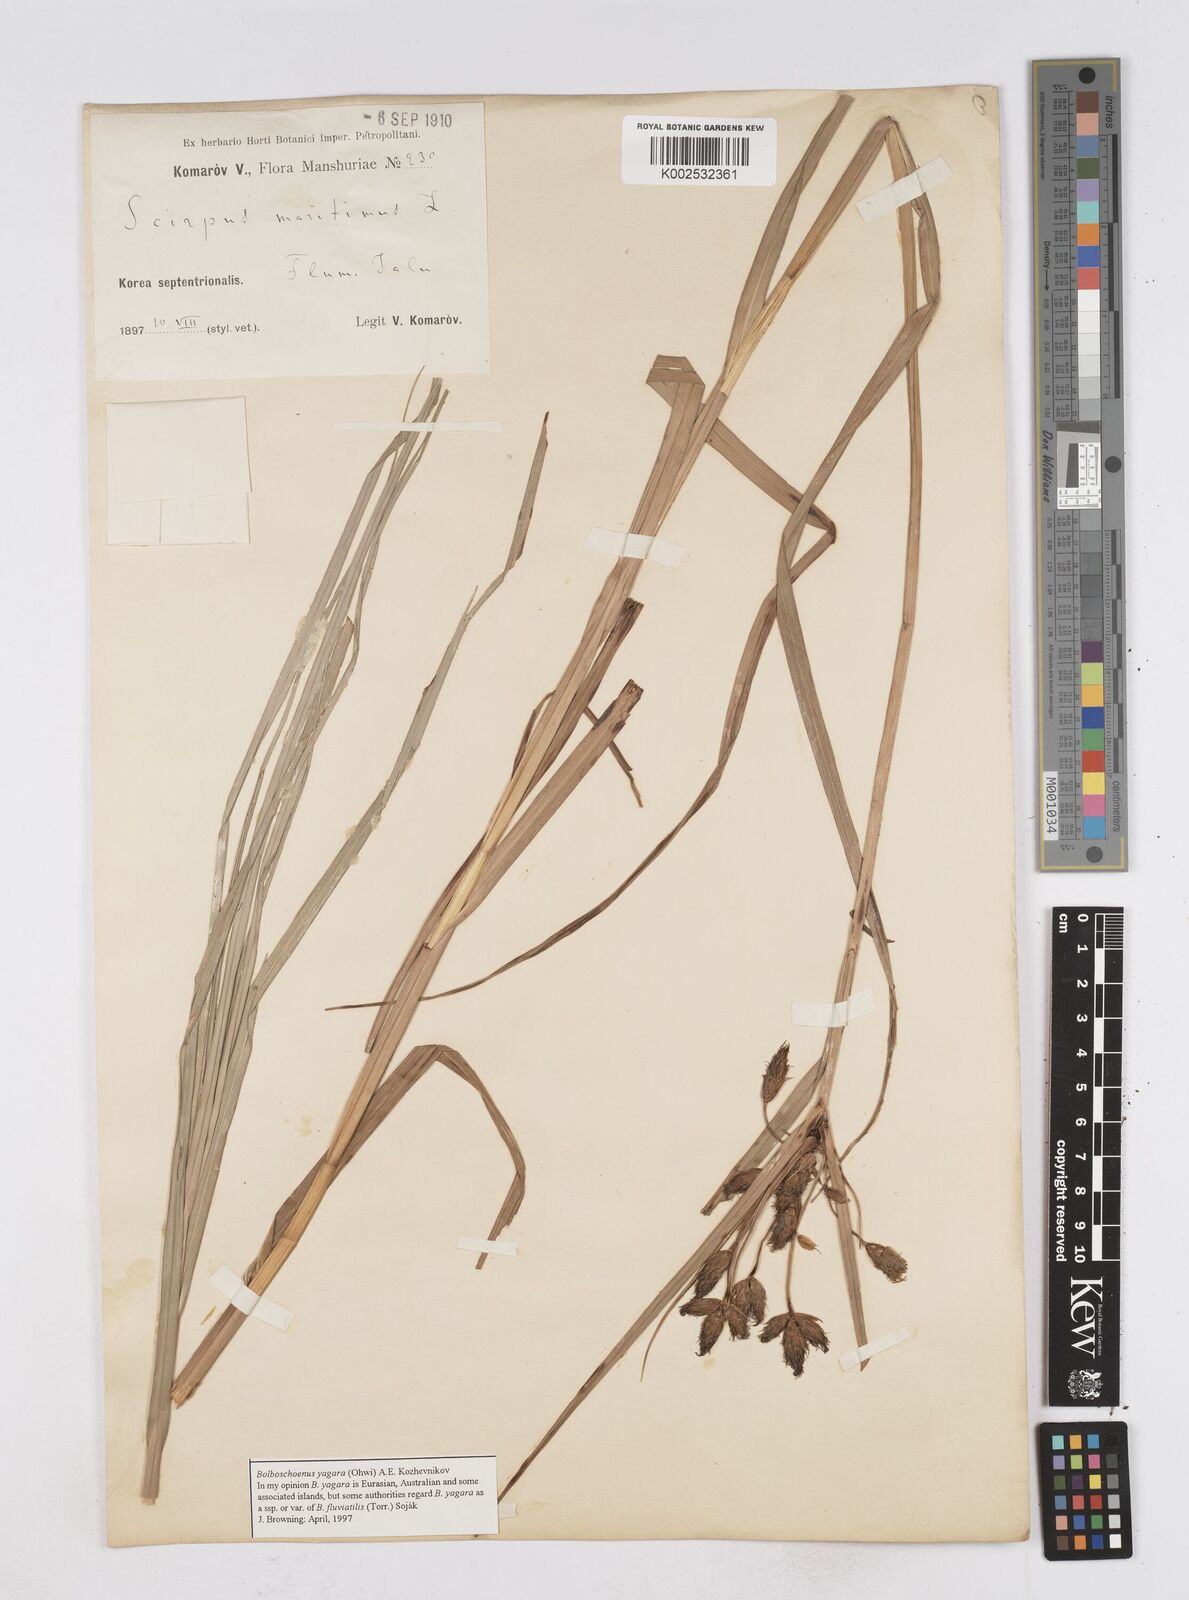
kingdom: Plantae
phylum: Tracheophyta
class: Liliopsida
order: Poales
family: Cyperaceae
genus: Bolboschoenus
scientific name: Bolboschoenus maritimus
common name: Sea club-rush
